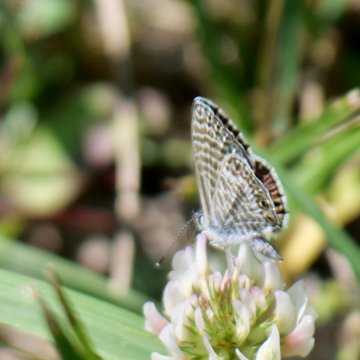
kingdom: Animalia
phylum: Arthropoda
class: Insecta
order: Lepidoptera
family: Lycaenidae
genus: Leptotes
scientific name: Leptotes marina
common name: Marine Blue
